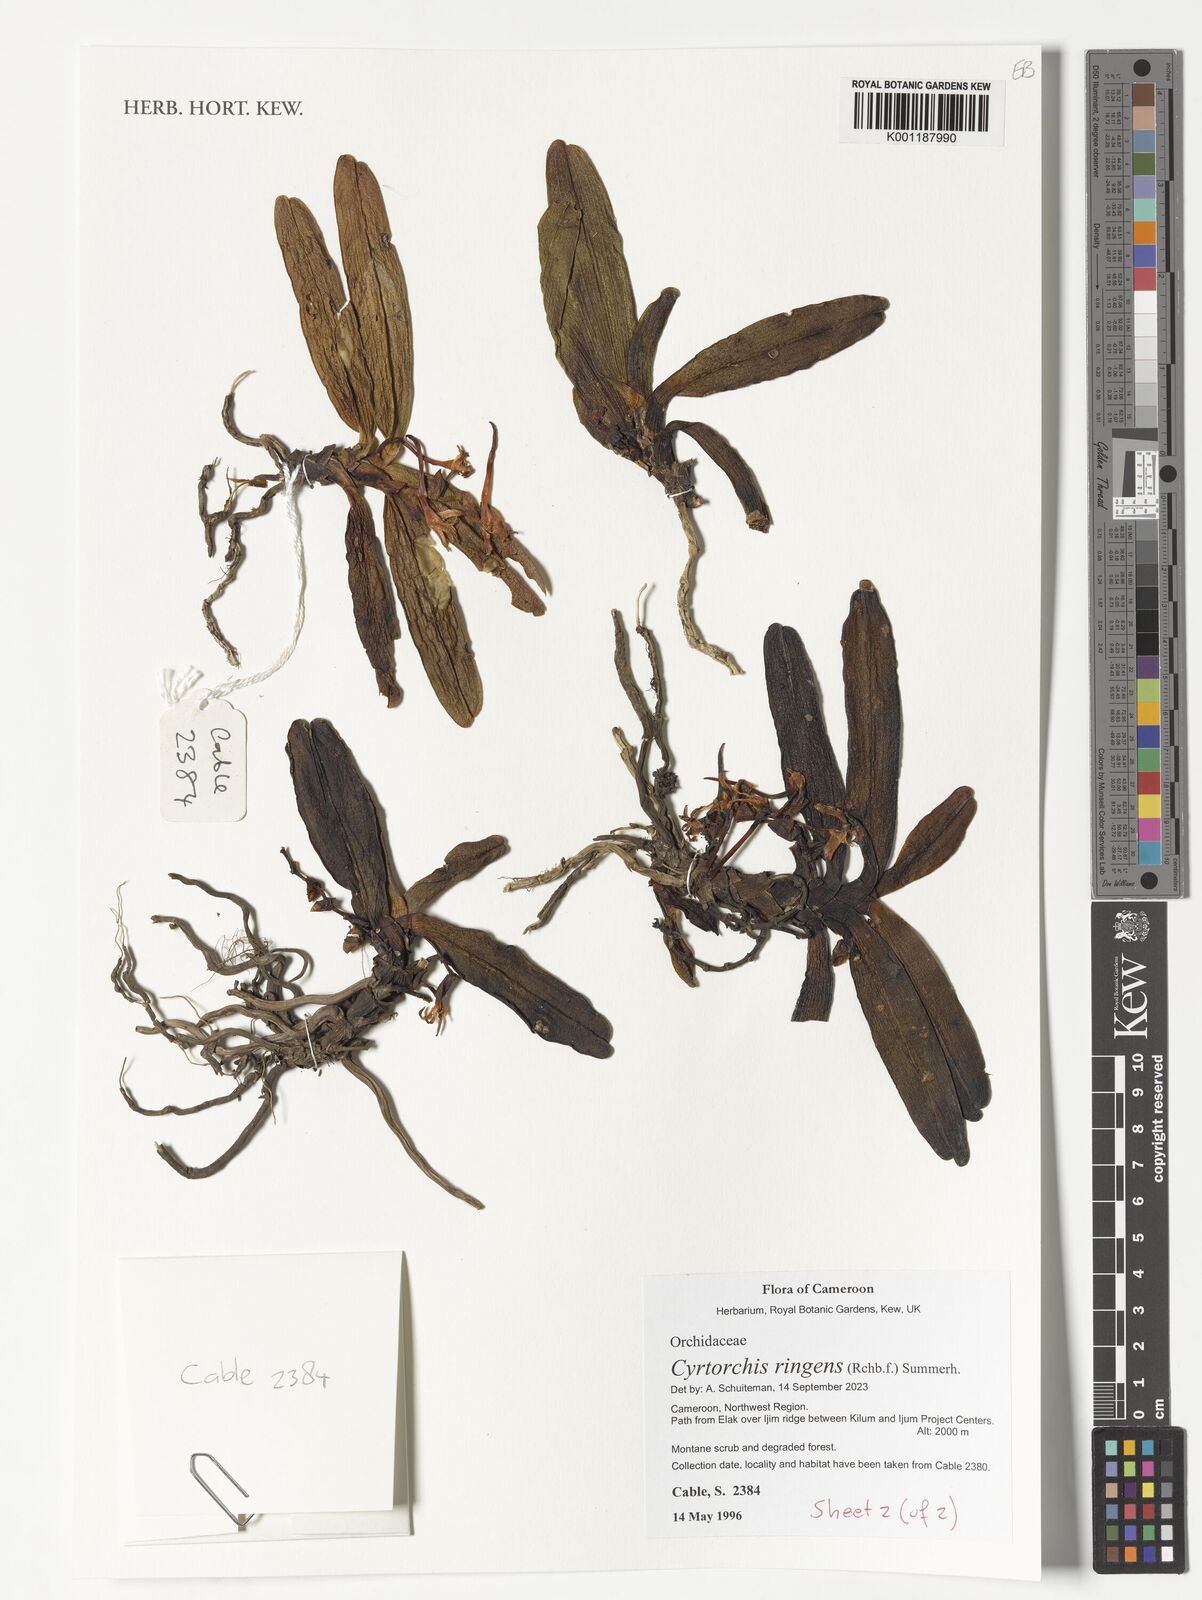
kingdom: Plantae
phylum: Tracheophyta
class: Liliopsida
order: Asparagales
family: Orchidaceae
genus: Cyrtorchis
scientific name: Cyrtorchis ringens
